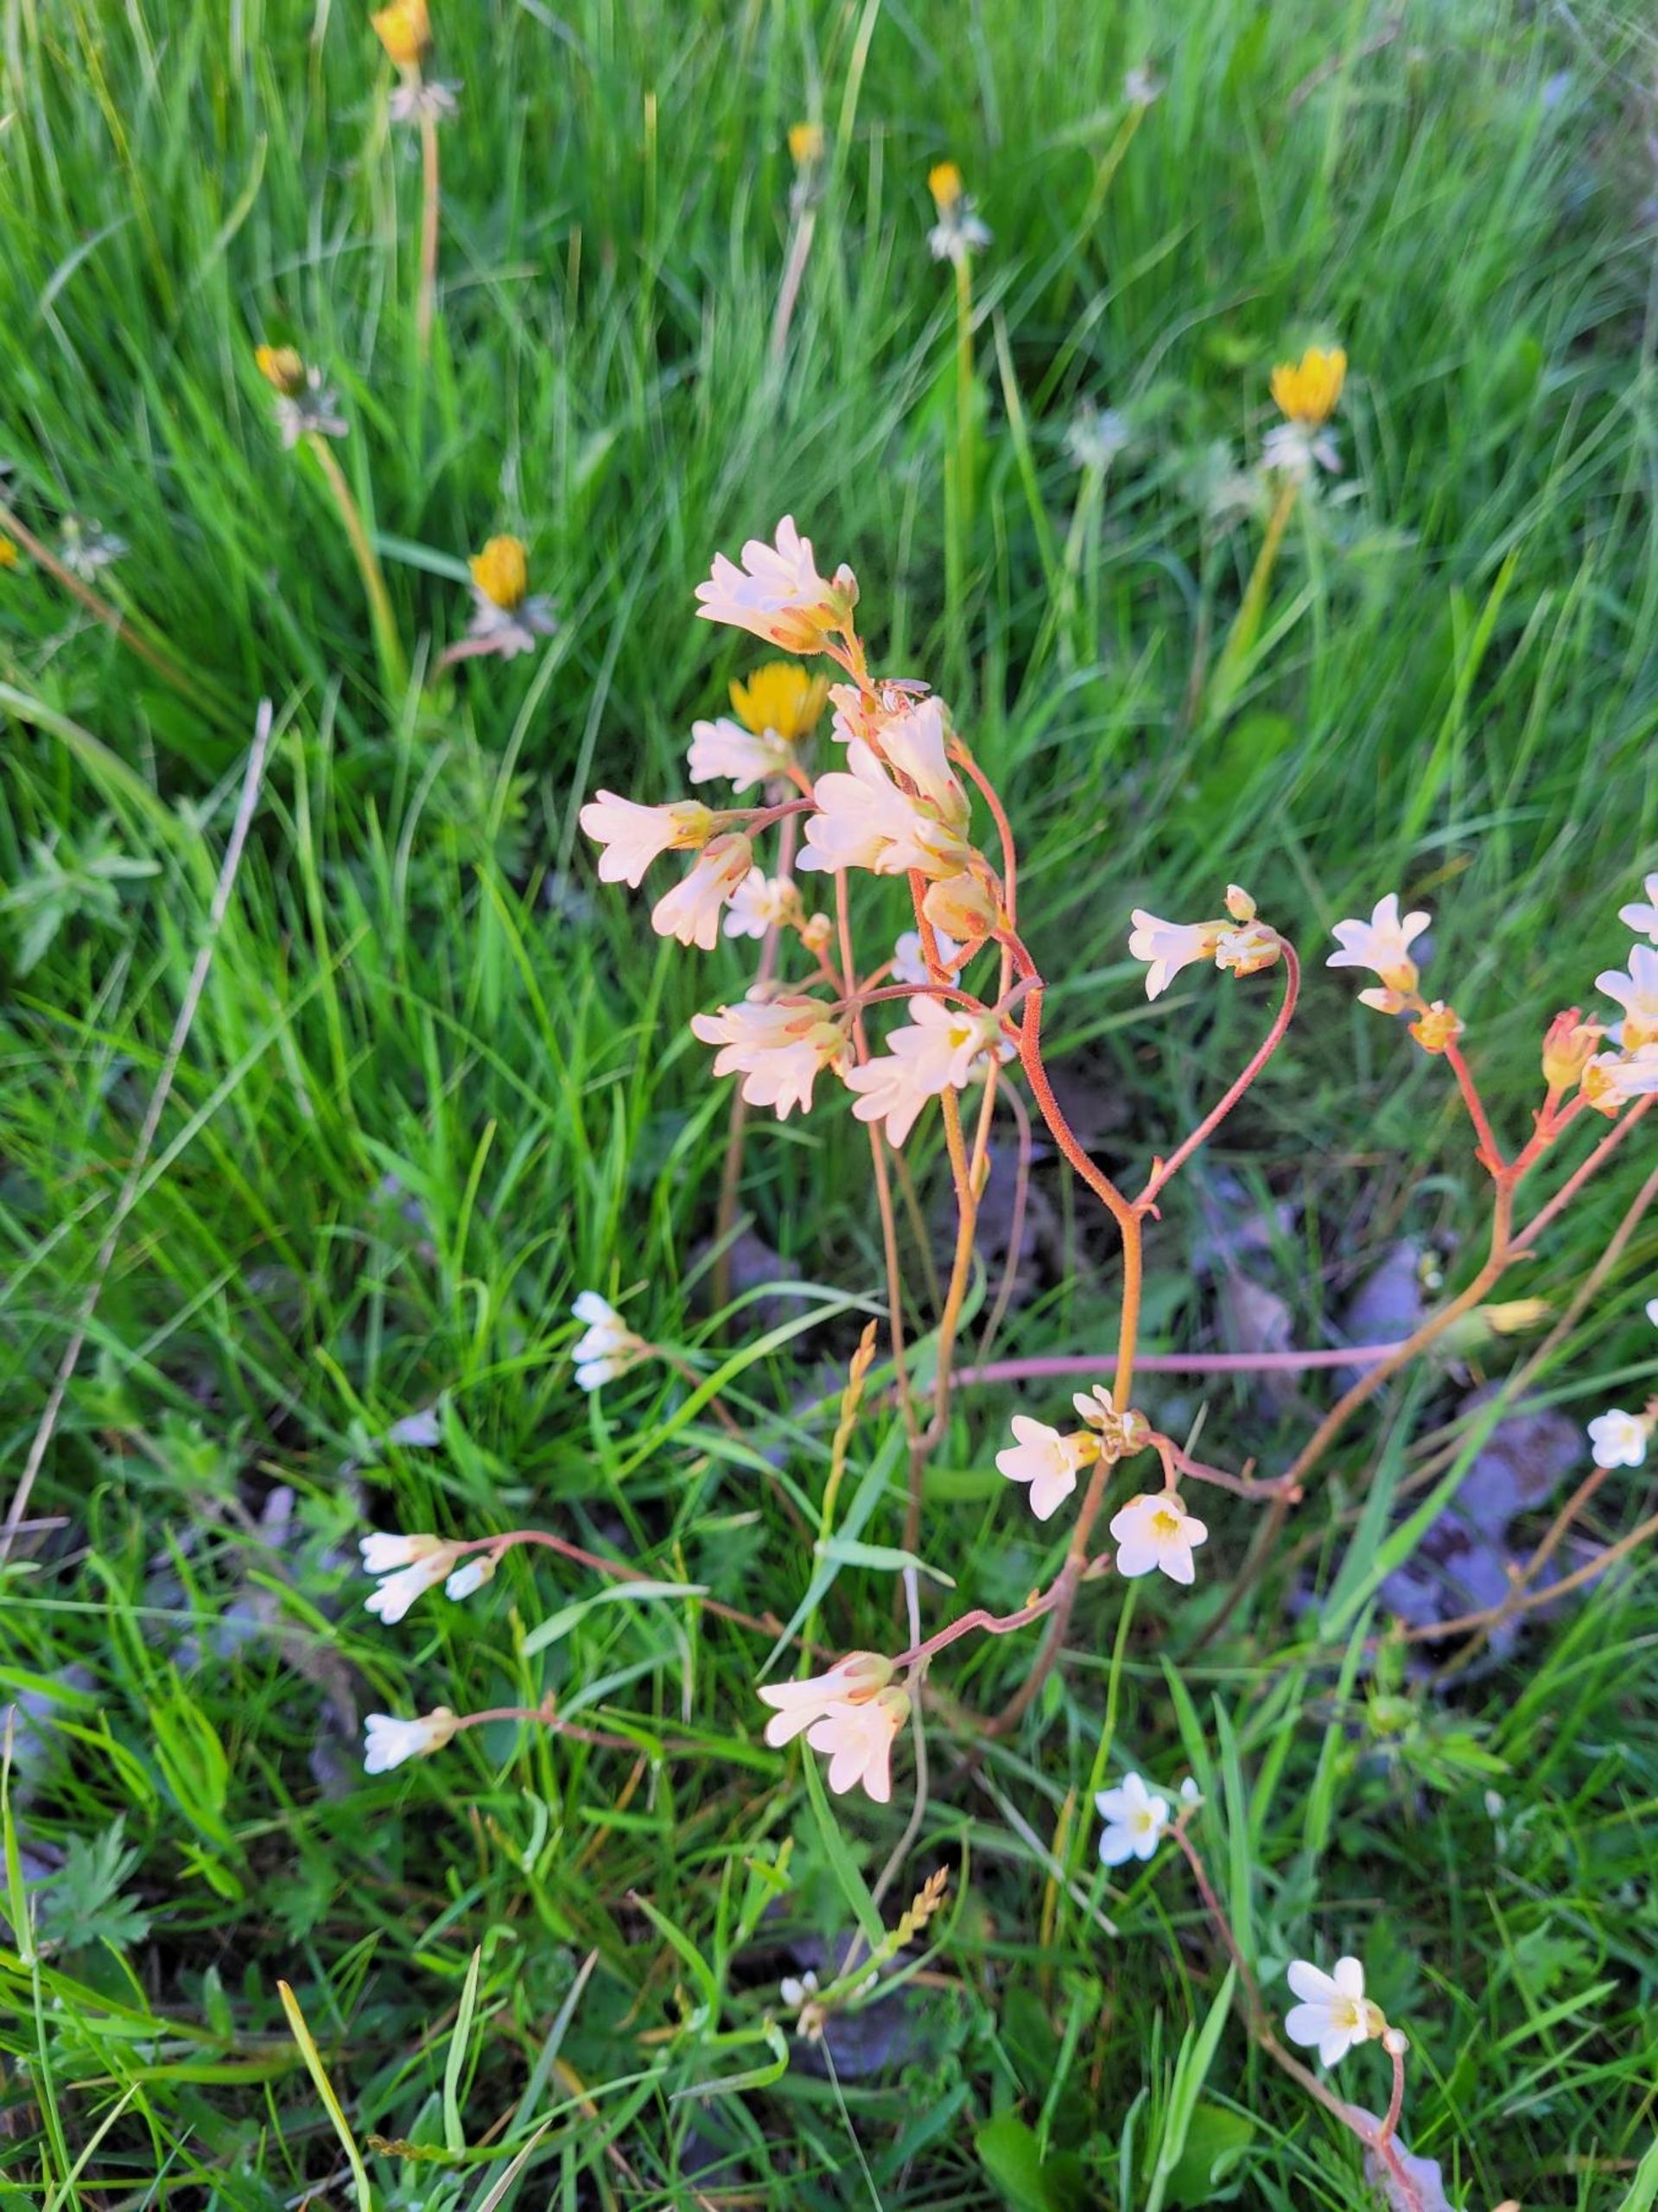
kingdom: Plantae
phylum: Tracheophyta
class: Magnoliopsida
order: Saxifragales
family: Saxifragaceae
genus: Saxifraga
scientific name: Saxifraga granulata
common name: Kornet stenbræk
